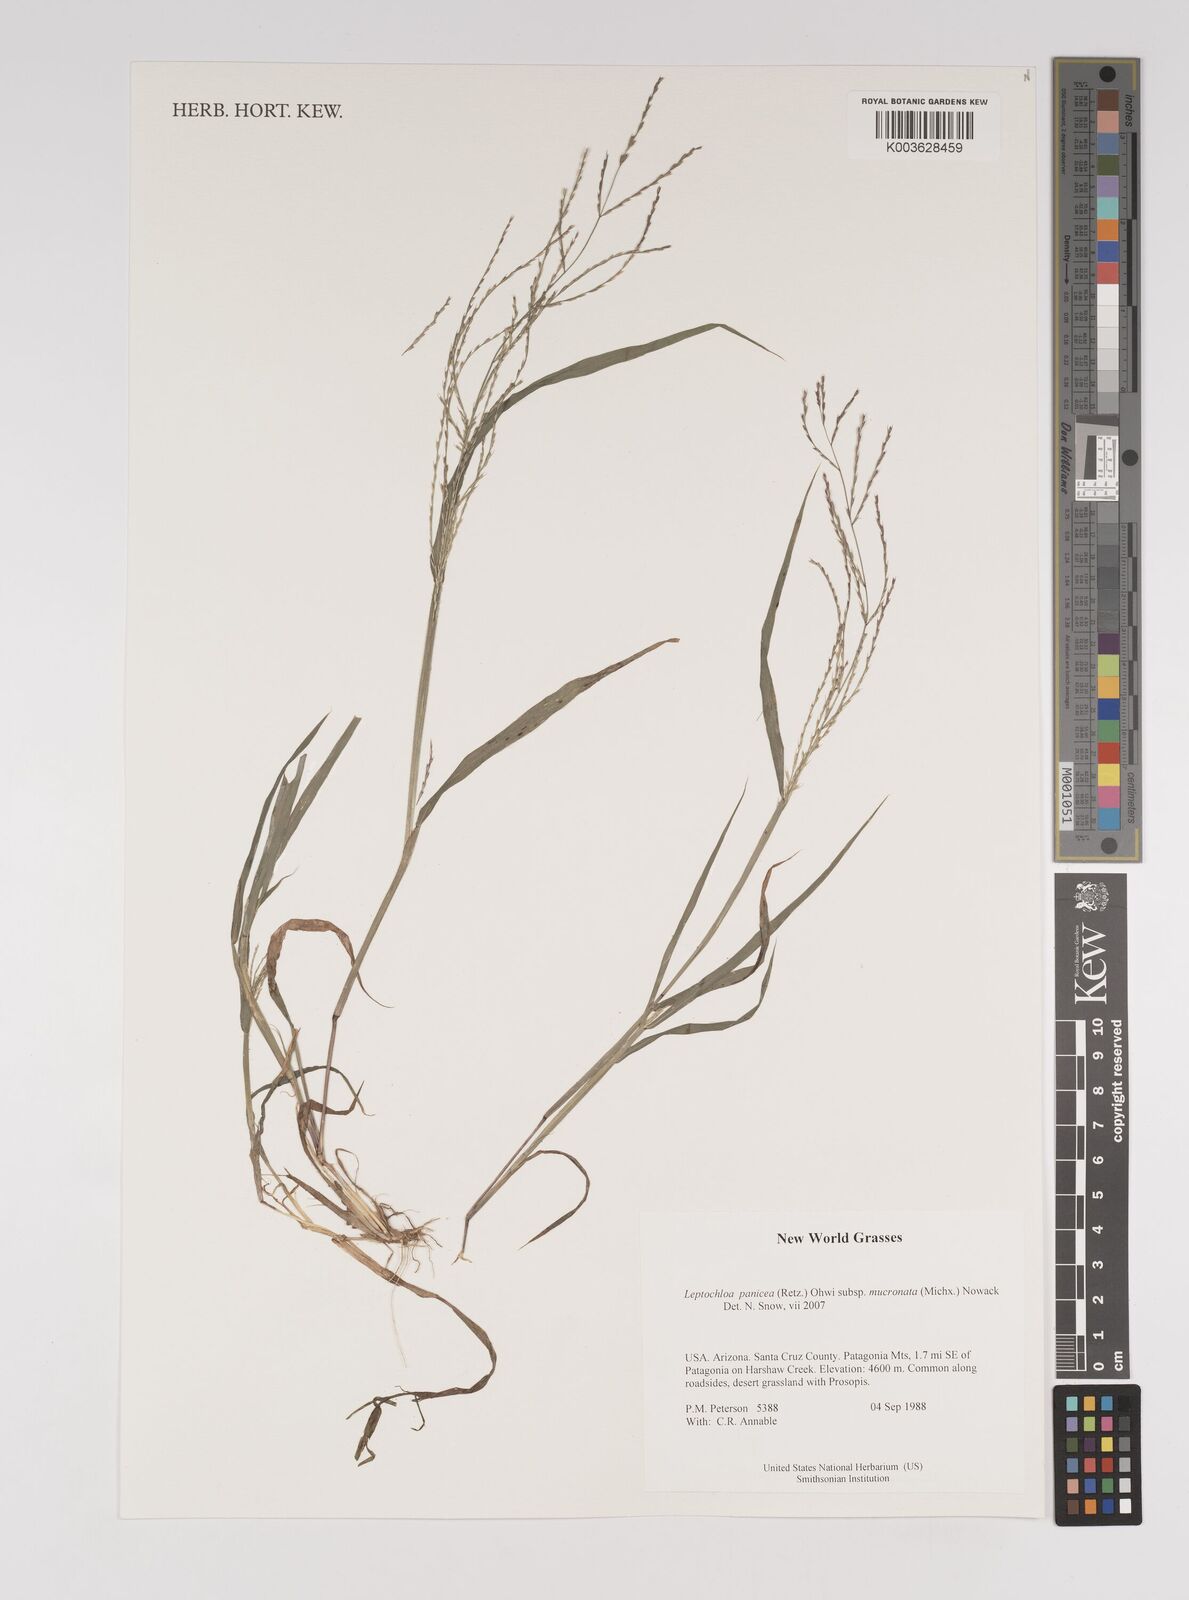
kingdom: Plantae
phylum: Tracheophyta
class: Liliopsida
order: Poales
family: Poaceae
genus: Leptochloa
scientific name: Leptochloa panicea
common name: Mucronate sprangletop
